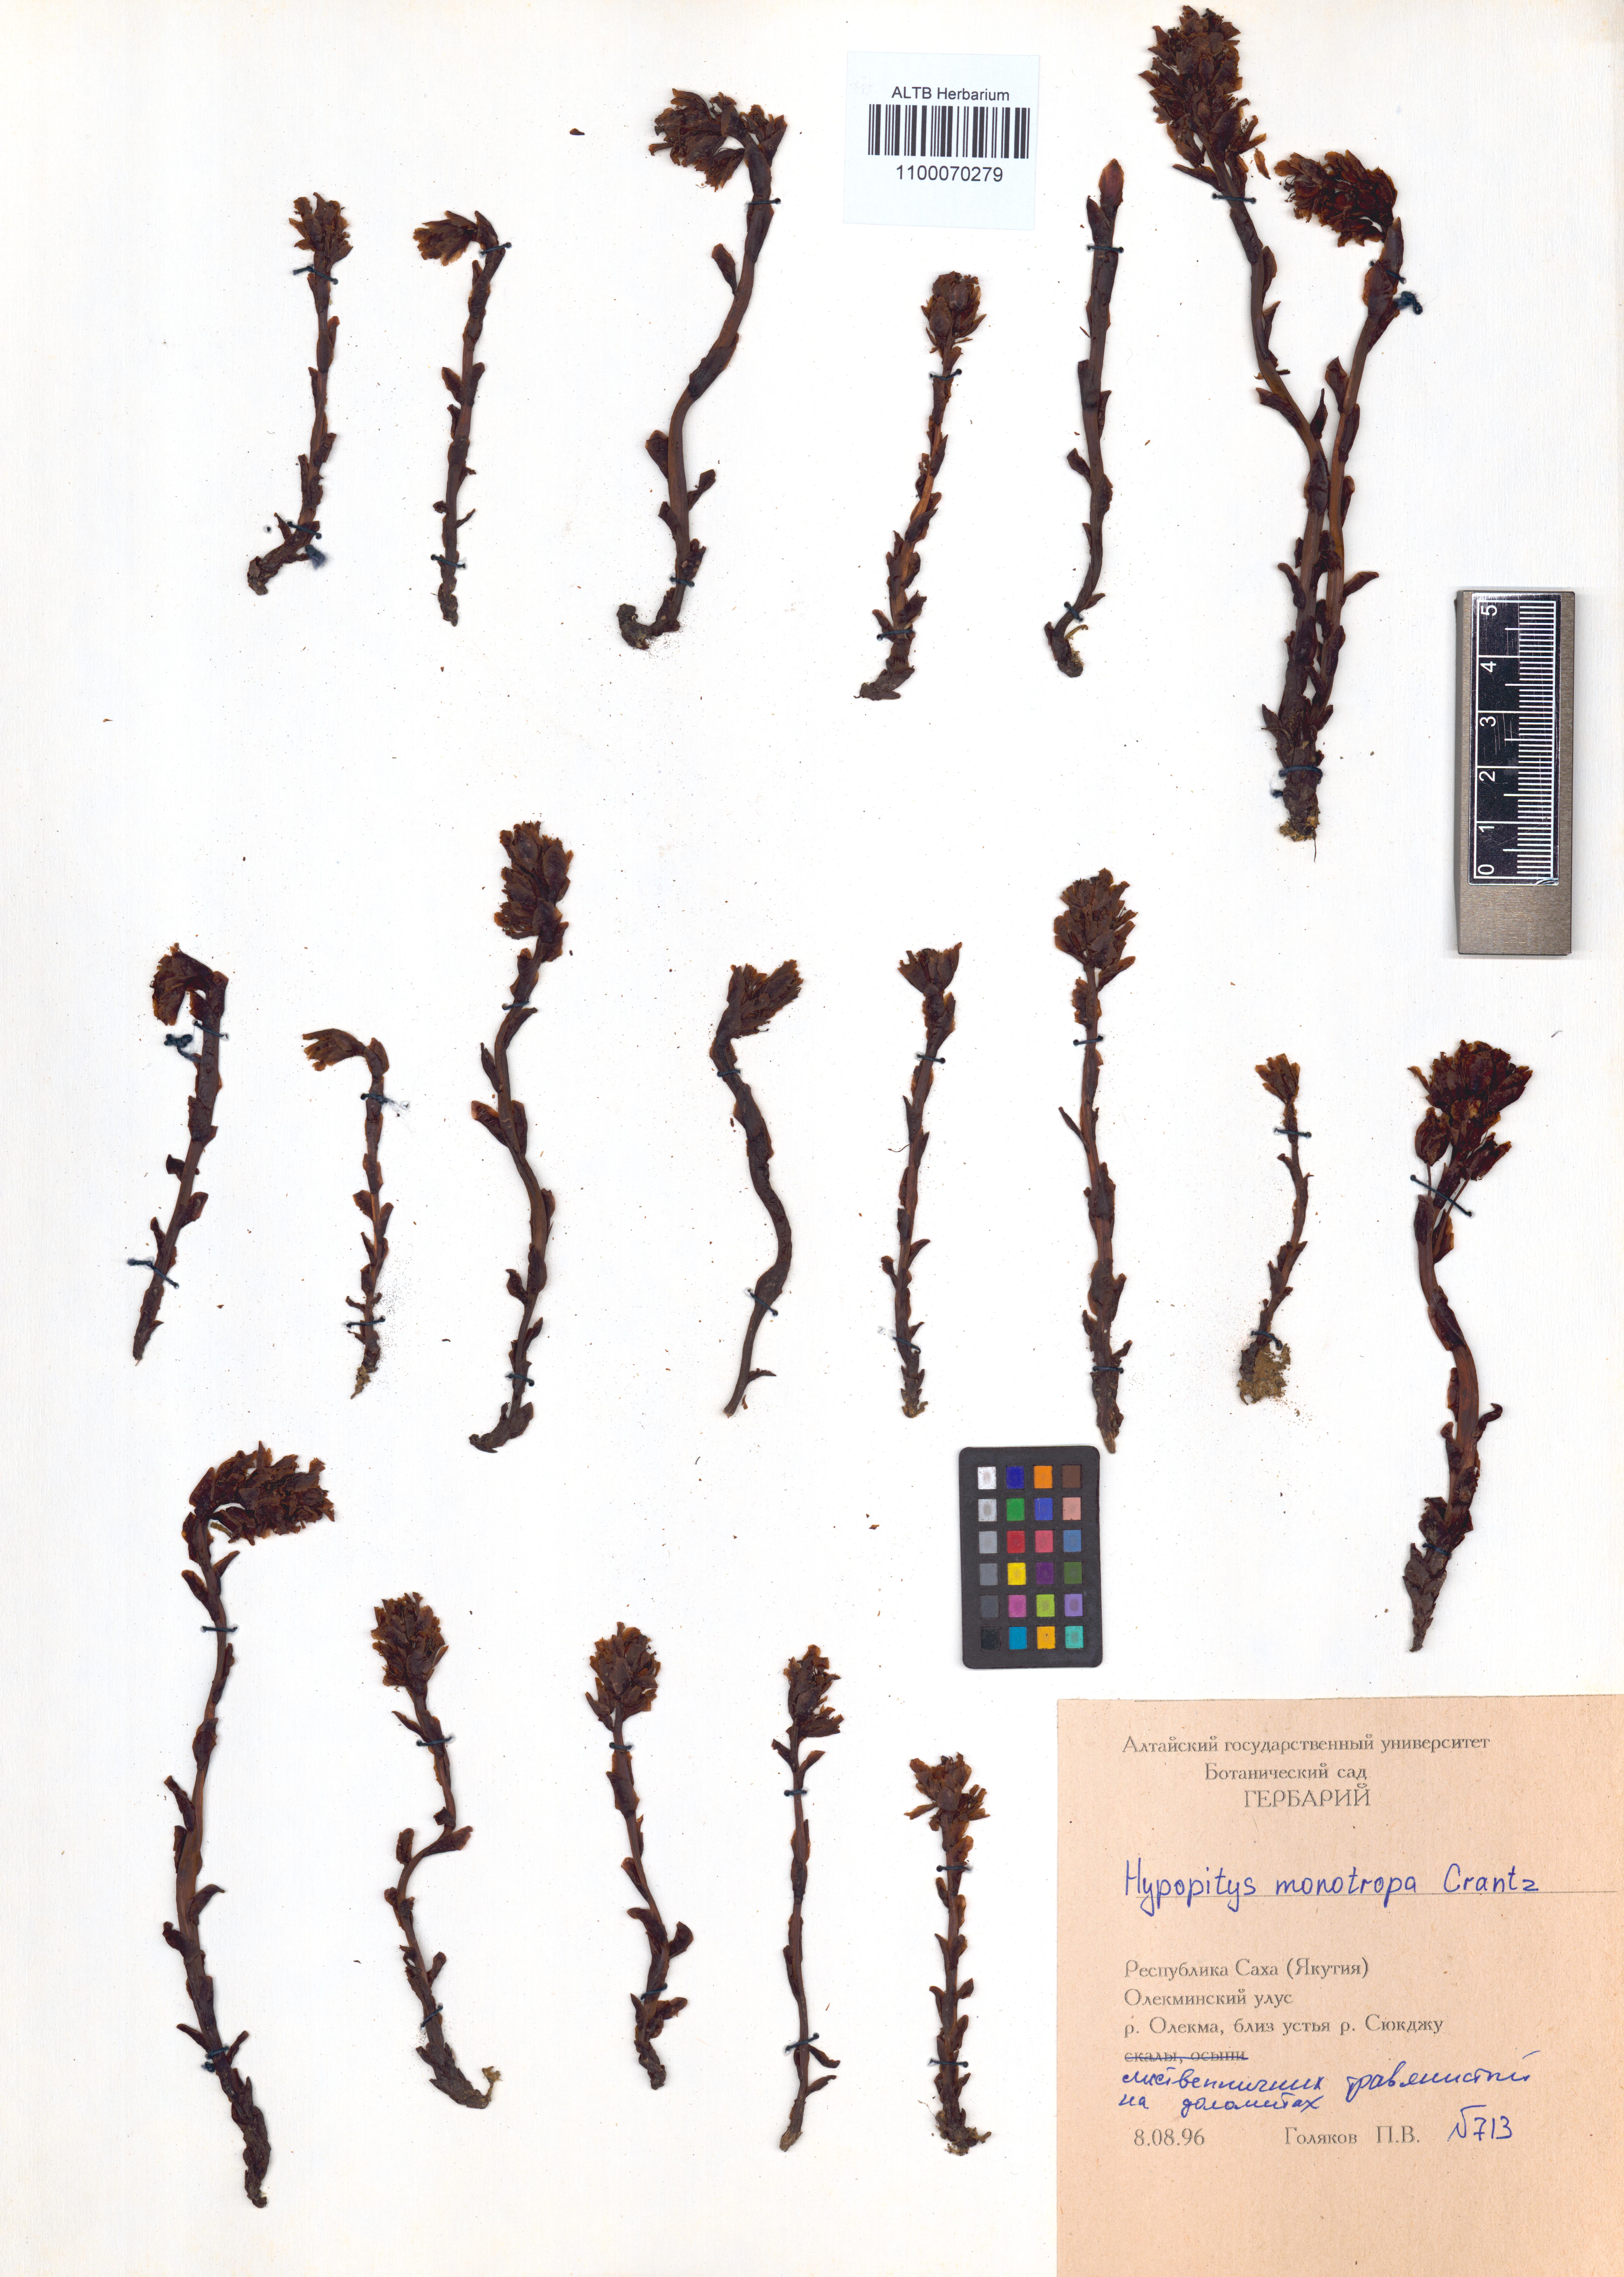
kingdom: Plantae
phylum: Tracheophyta
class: Magnoliopsida
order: Ericales
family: Ericaceae
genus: Hypopitys
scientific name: Hypopitys monotropa
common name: Yellow bird's-nest
